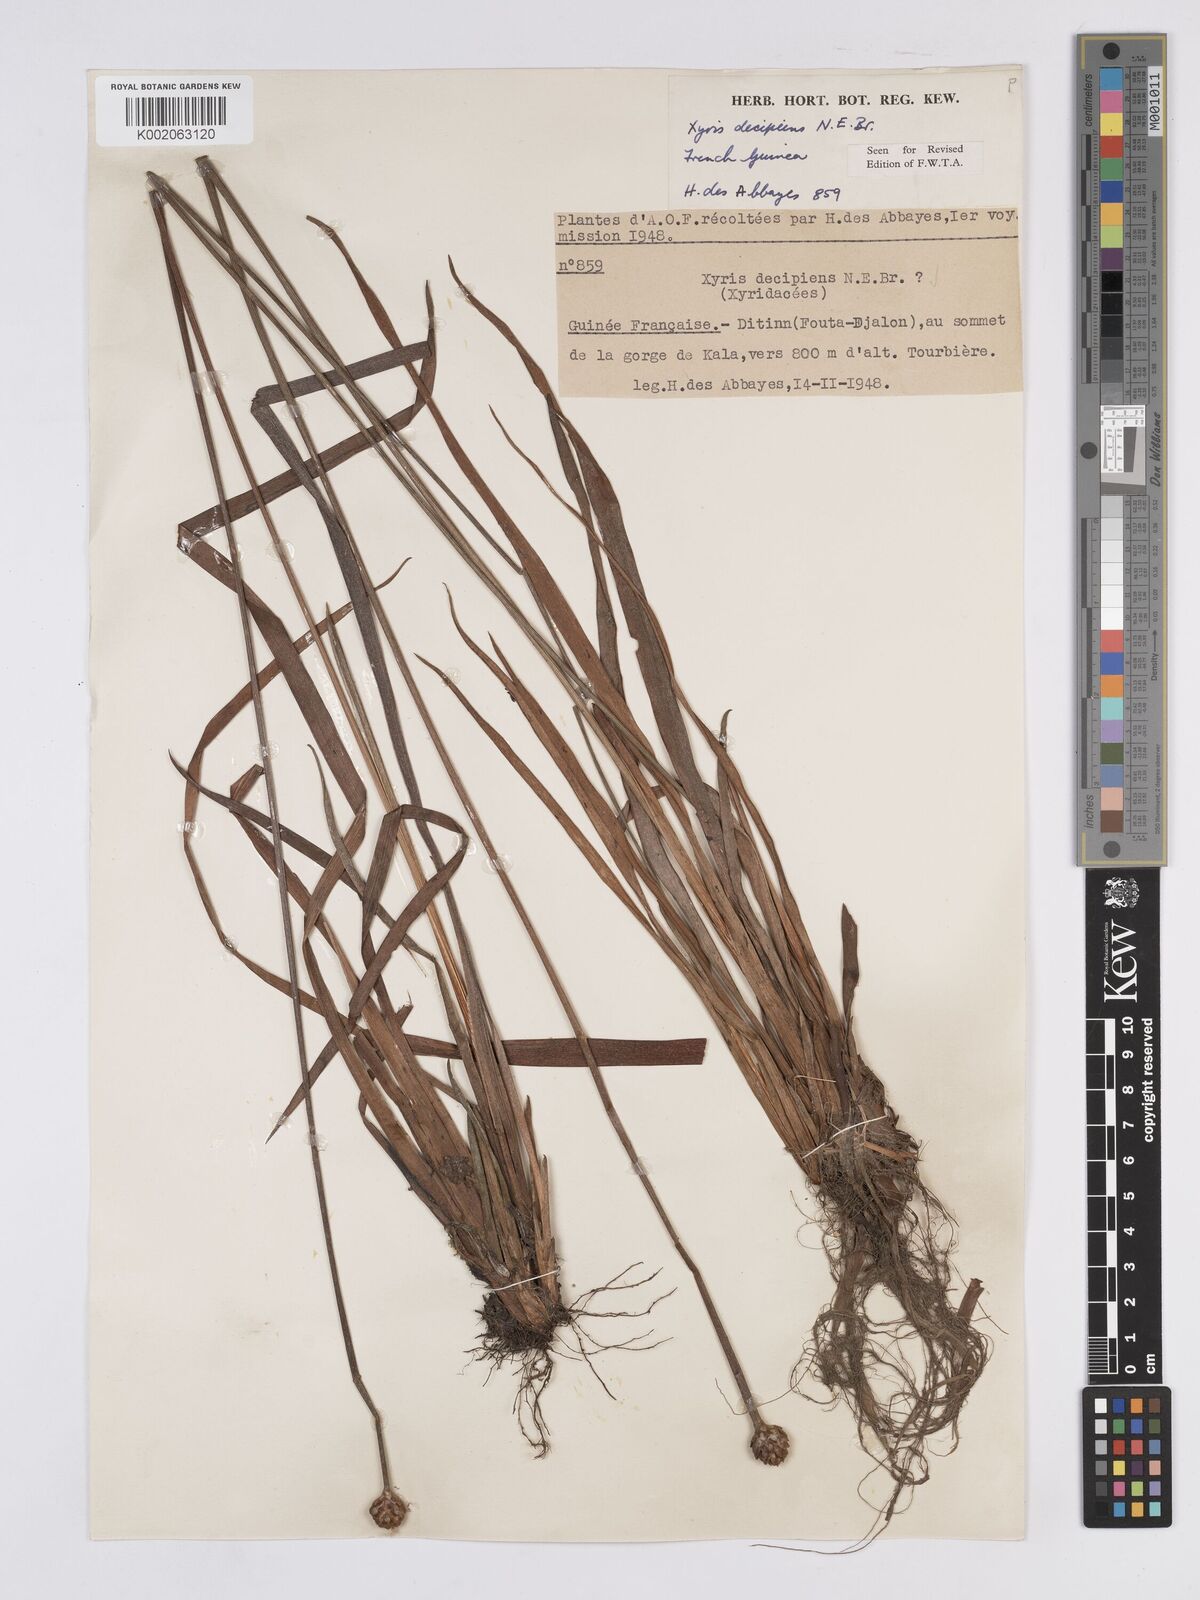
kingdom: Plantae
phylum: Tracheophyta
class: Liliopsida
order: Poales
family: Xyridaceae
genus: Xyris
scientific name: Xyris decipiens
